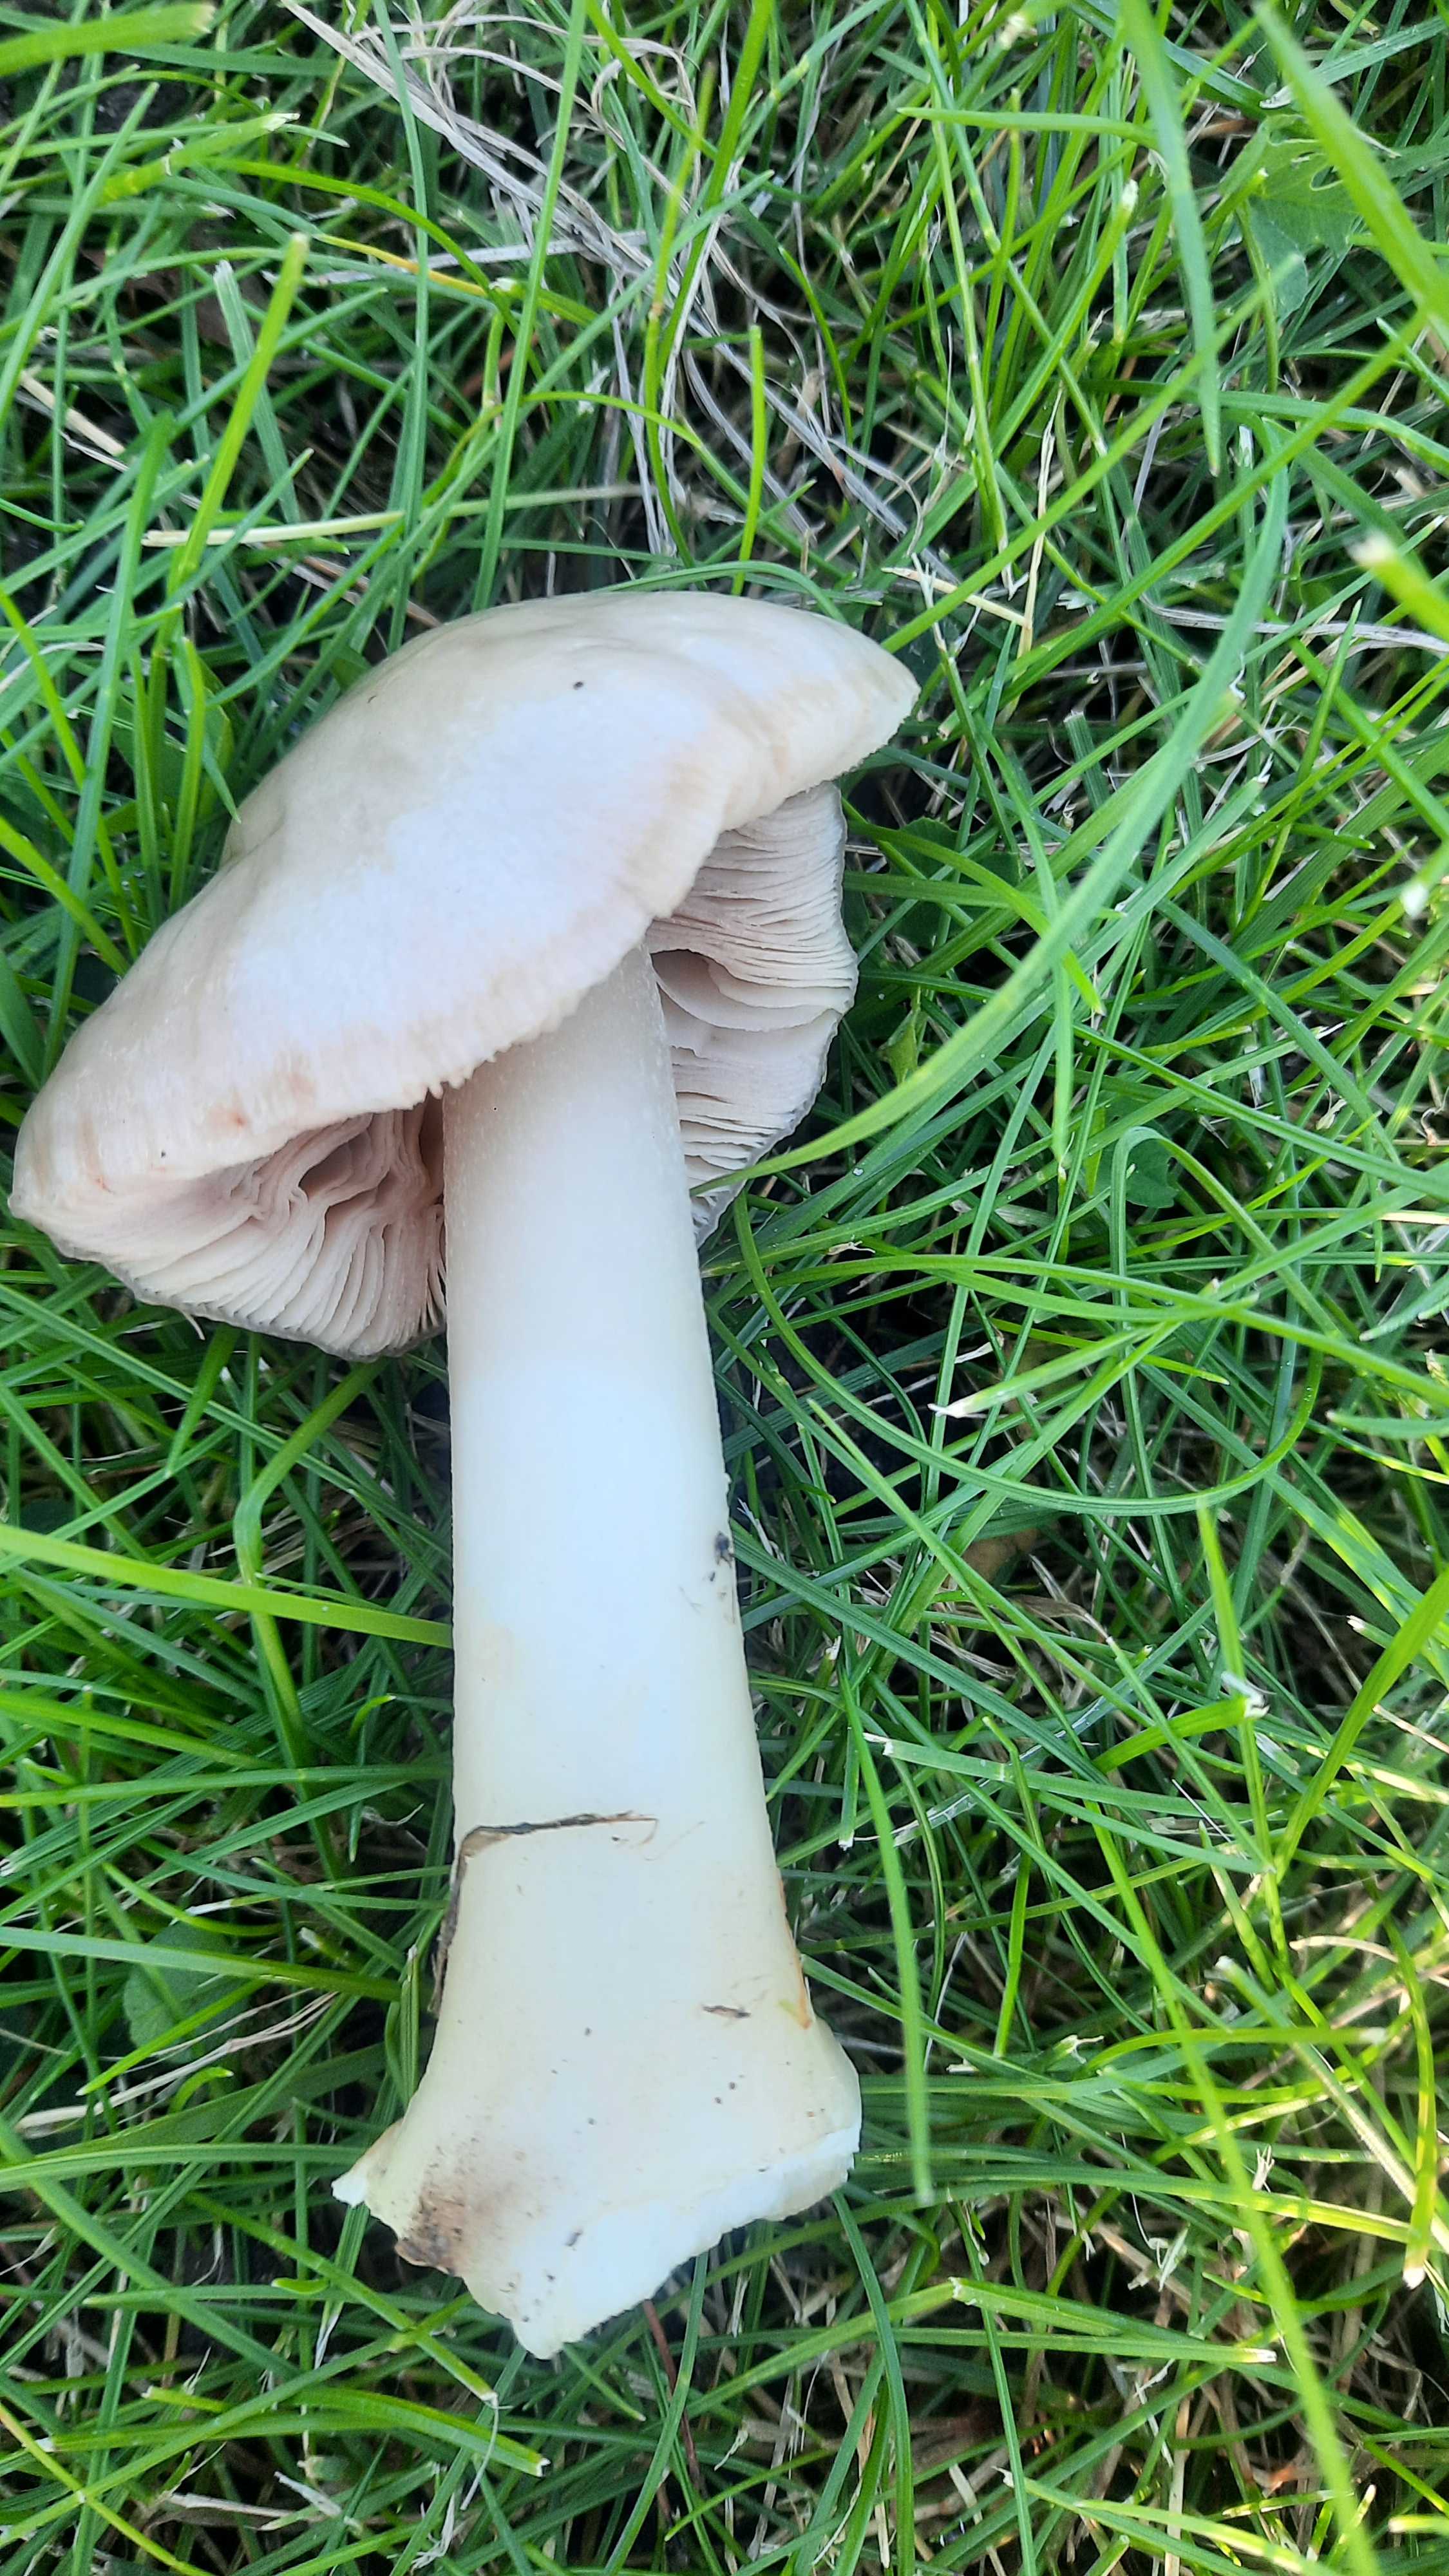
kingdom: Fungi
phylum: Basidiomycota
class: Agaricomycetes
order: Agaricales
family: Pluteaceae
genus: Volvopluteus
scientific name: Volvopluteus gloiocephalus
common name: høj posesvamp
